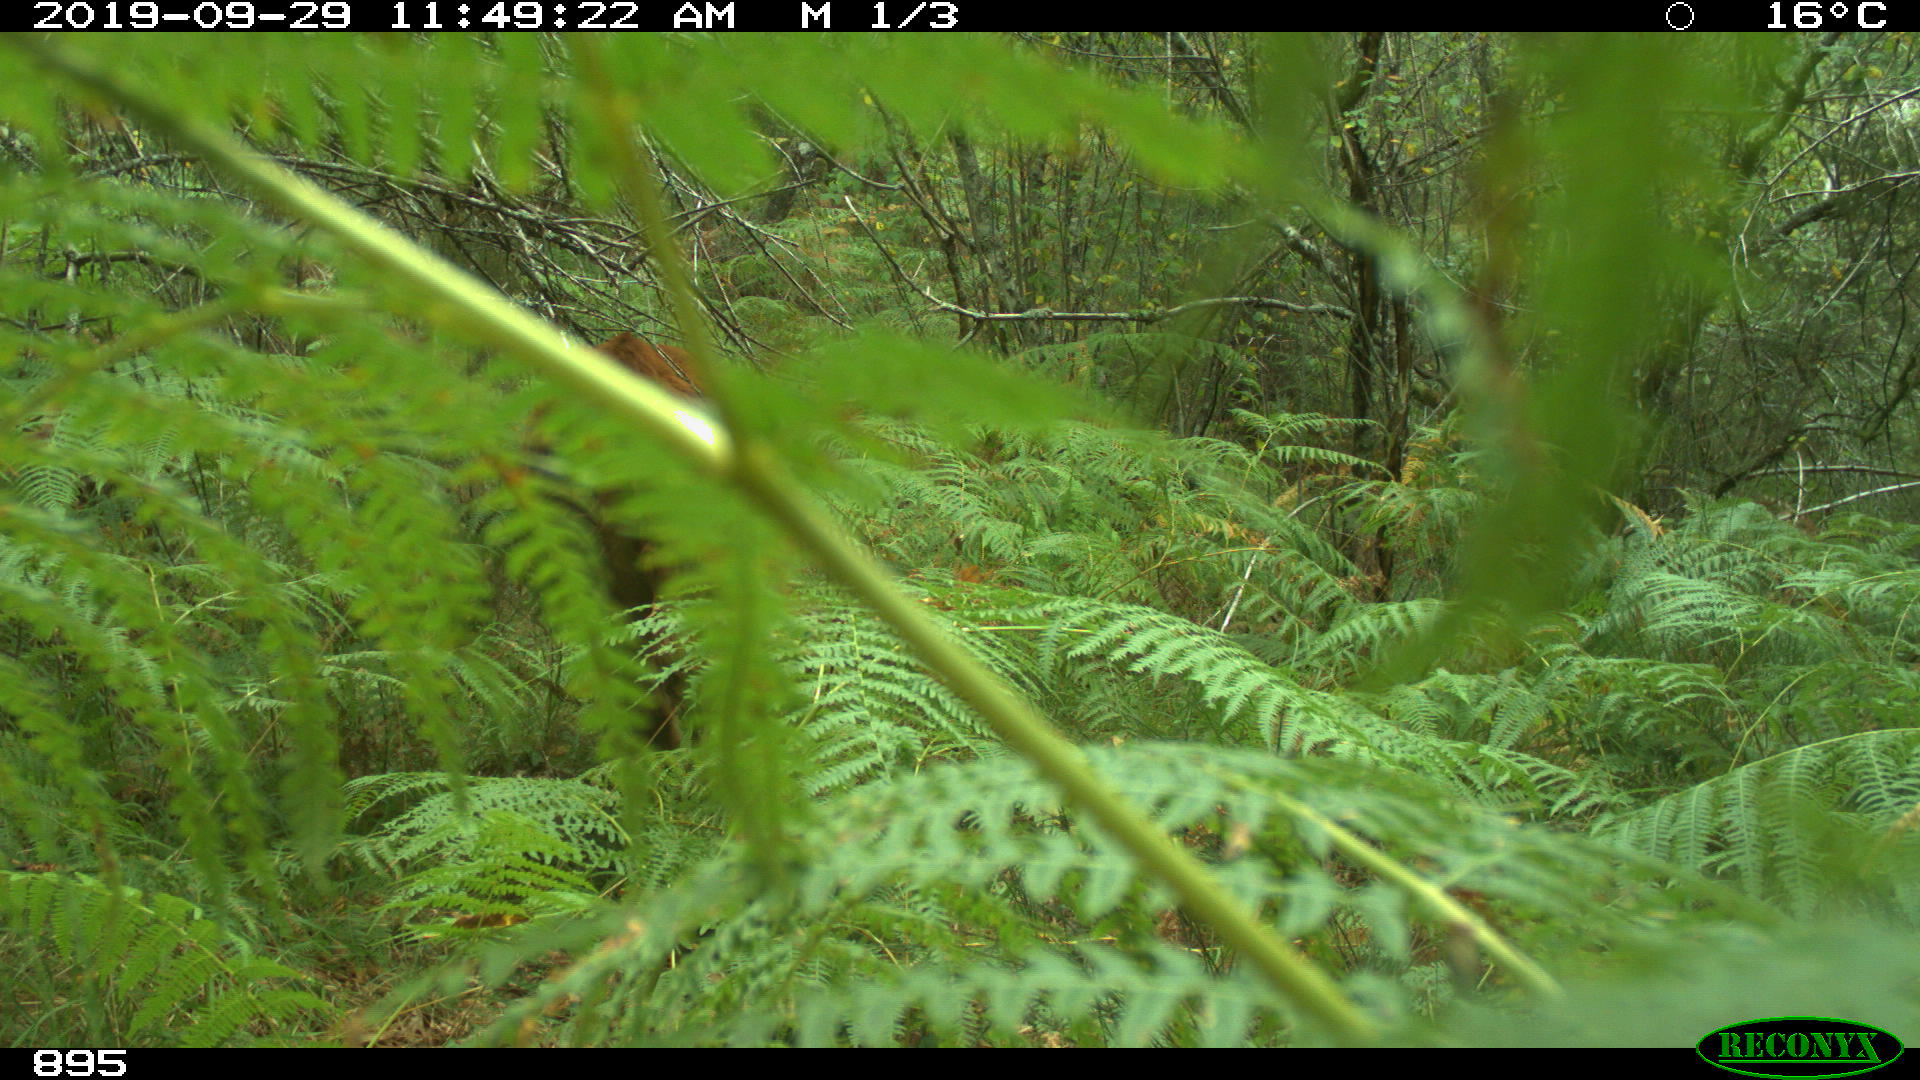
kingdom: Animalia
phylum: Chordata
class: Mammalia
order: Artiodactyla
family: Bovidae
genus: Bos
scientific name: Bos taurus
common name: Domesticated cattle
